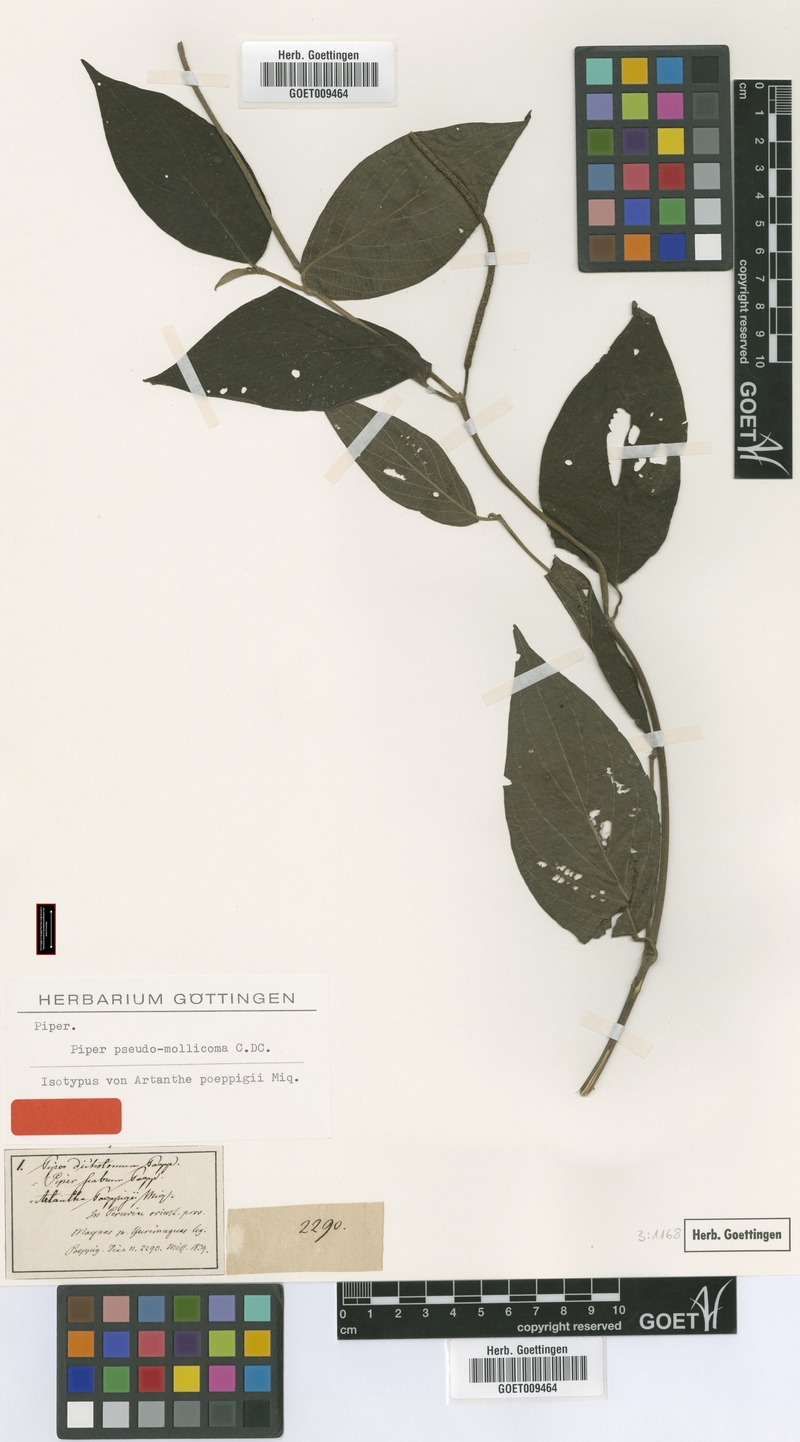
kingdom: Plantae
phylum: Tracheophyta
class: Magnoliopsida
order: Piperales
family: Piperaceae
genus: Piper
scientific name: Piper poeppigii
